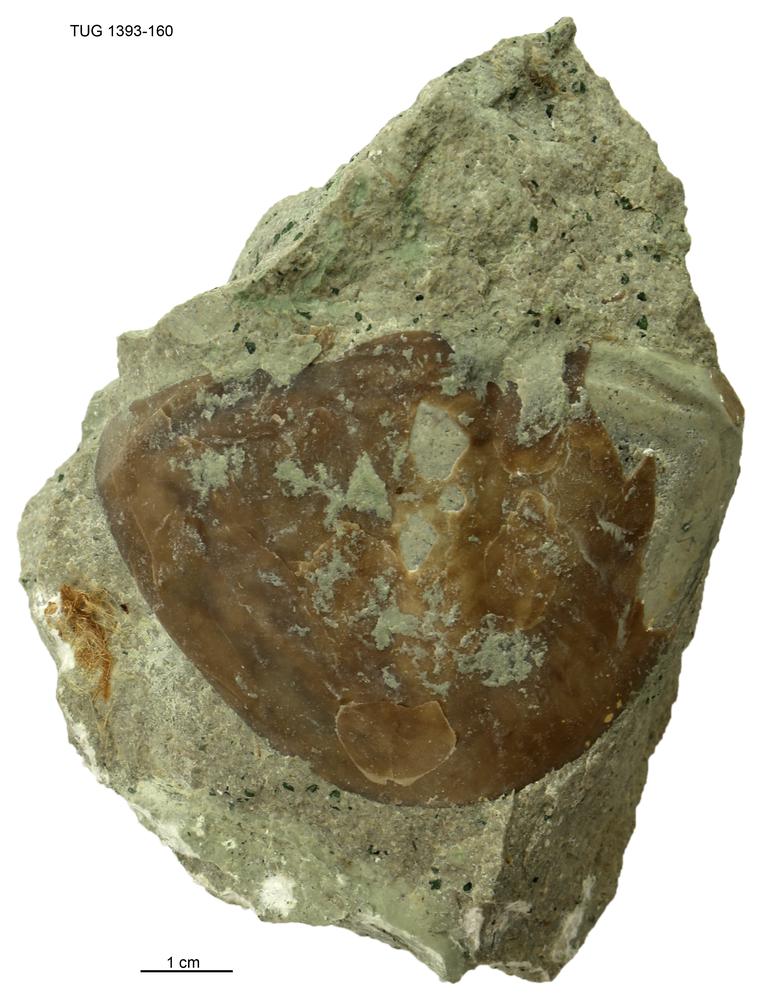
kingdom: Animalia
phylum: Arthropoda
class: Trilobita
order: Asaphida
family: Asaphidae
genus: Megistaspis
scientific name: Megistaspis
